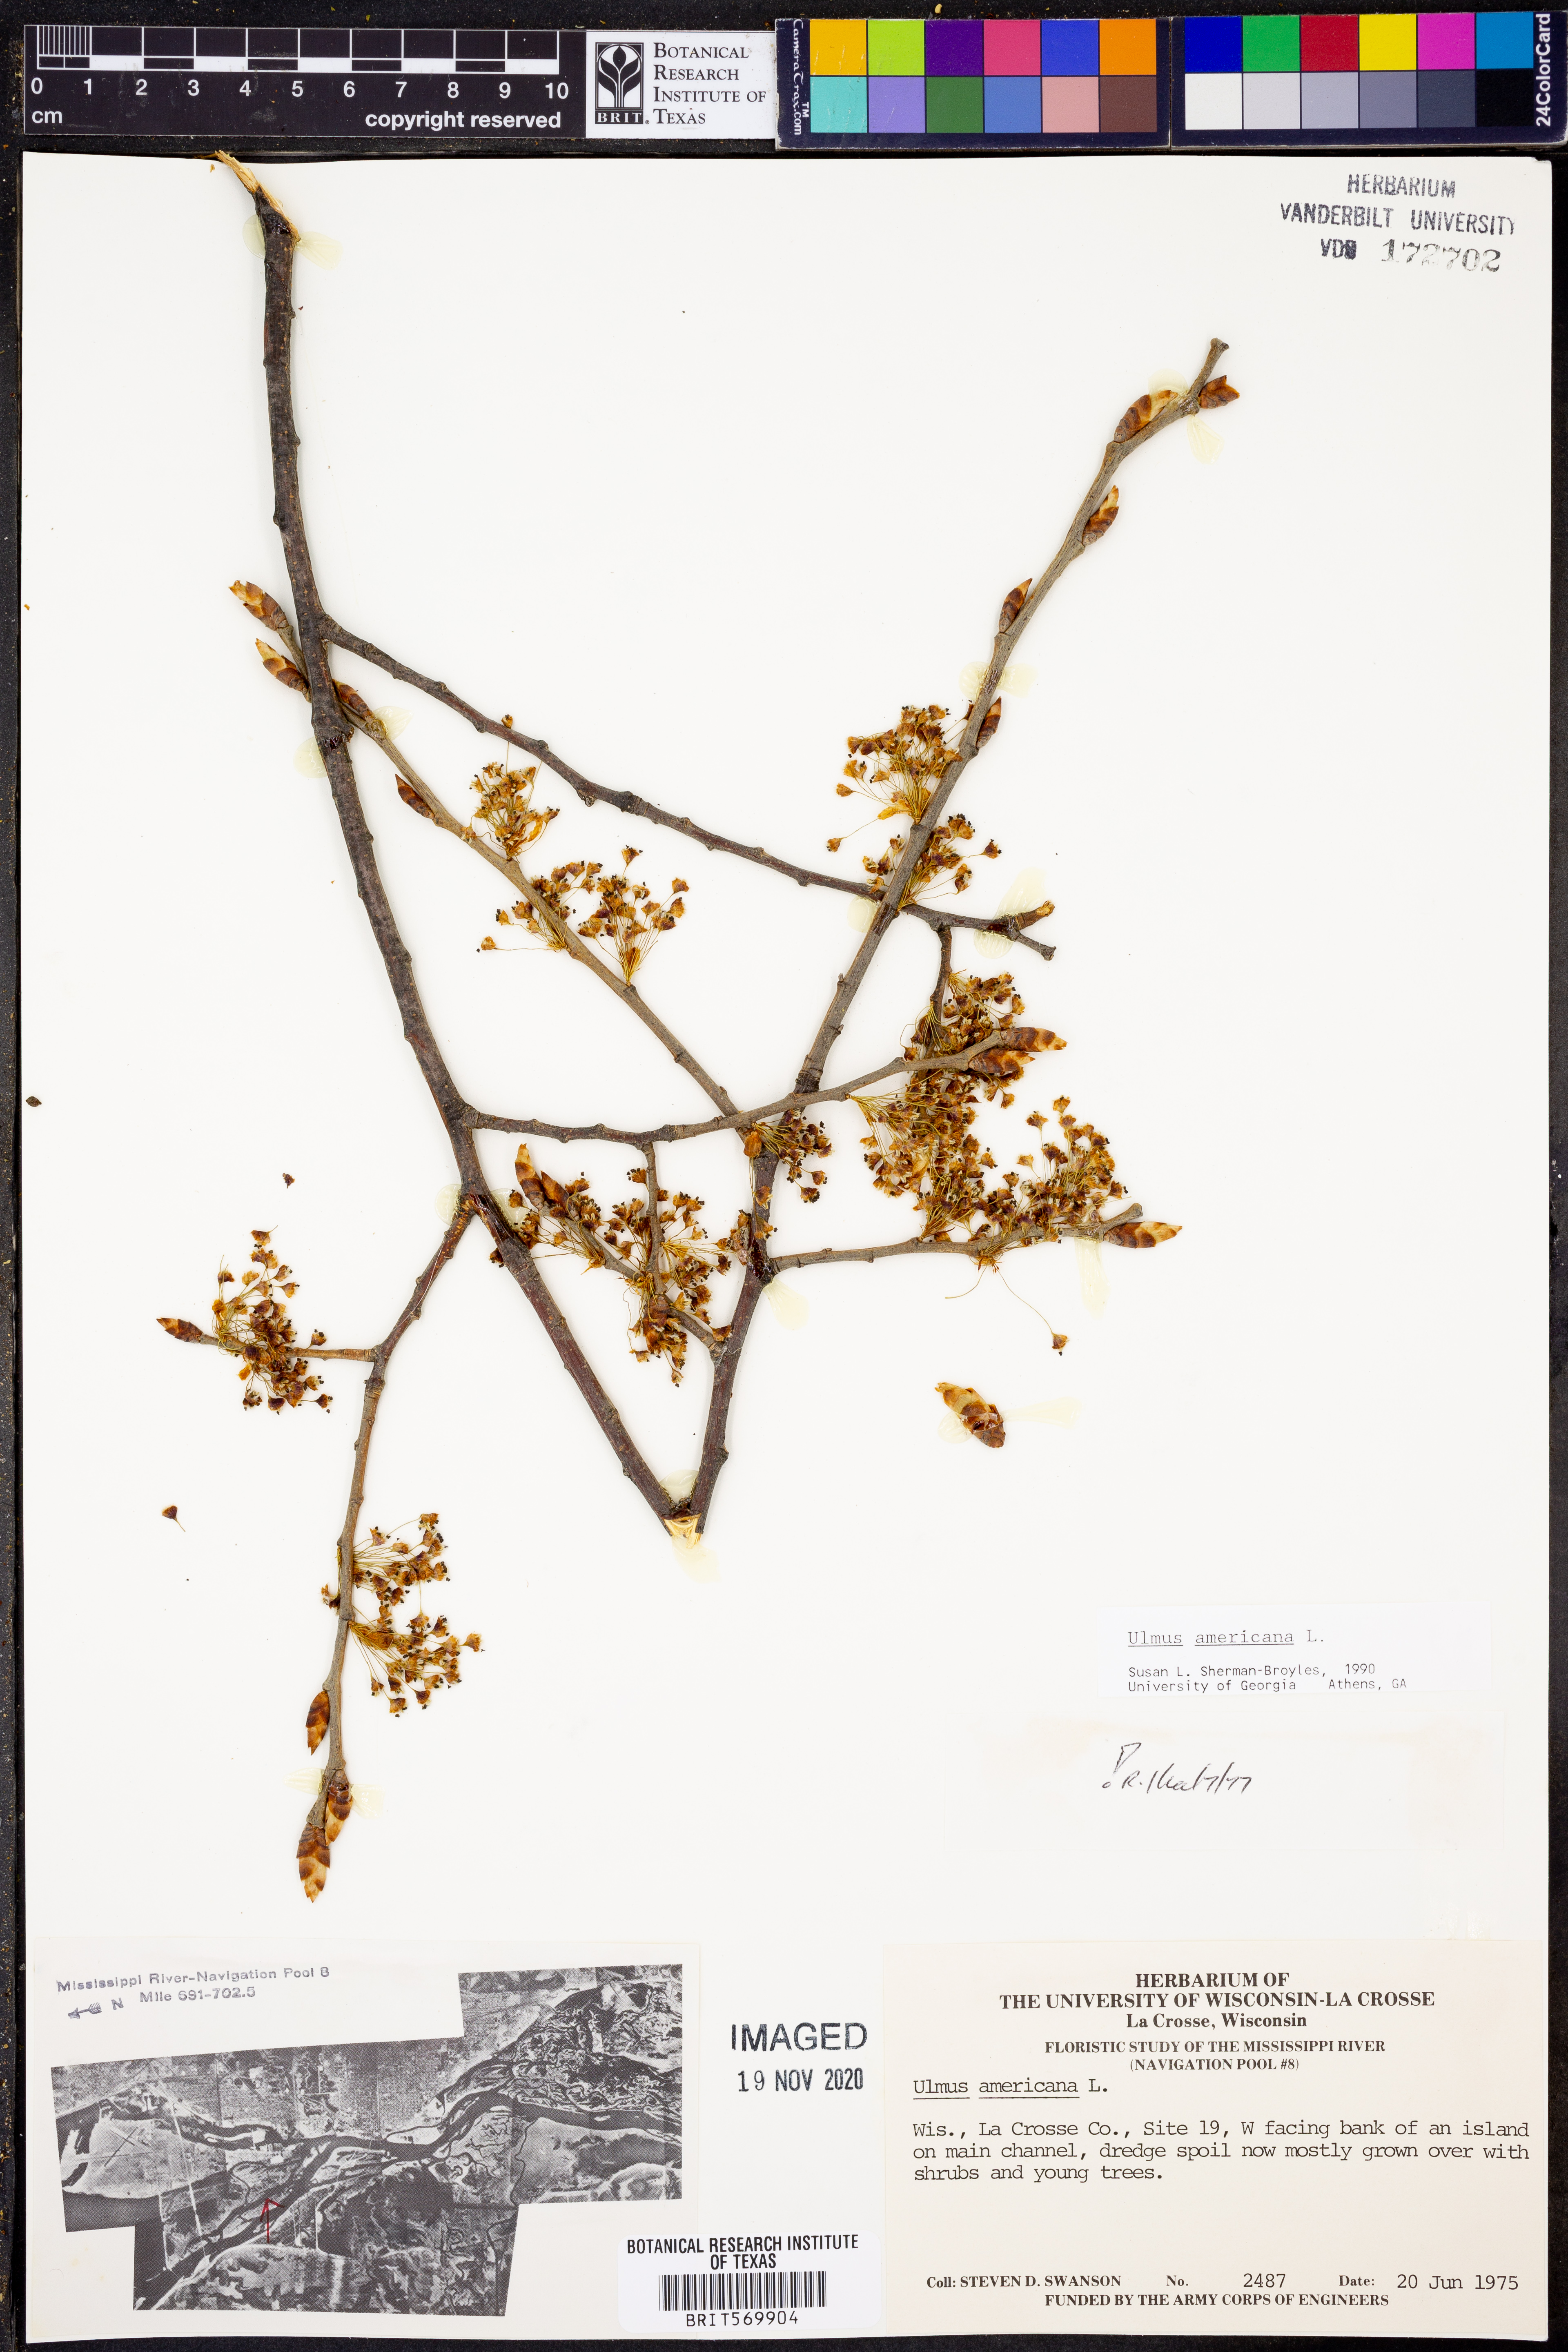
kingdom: Plantae
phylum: Tracheophyta
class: Magnoliopsida
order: Rosales
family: Ulmaceae
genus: Ulmus
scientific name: Ulmus americana
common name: American elm
